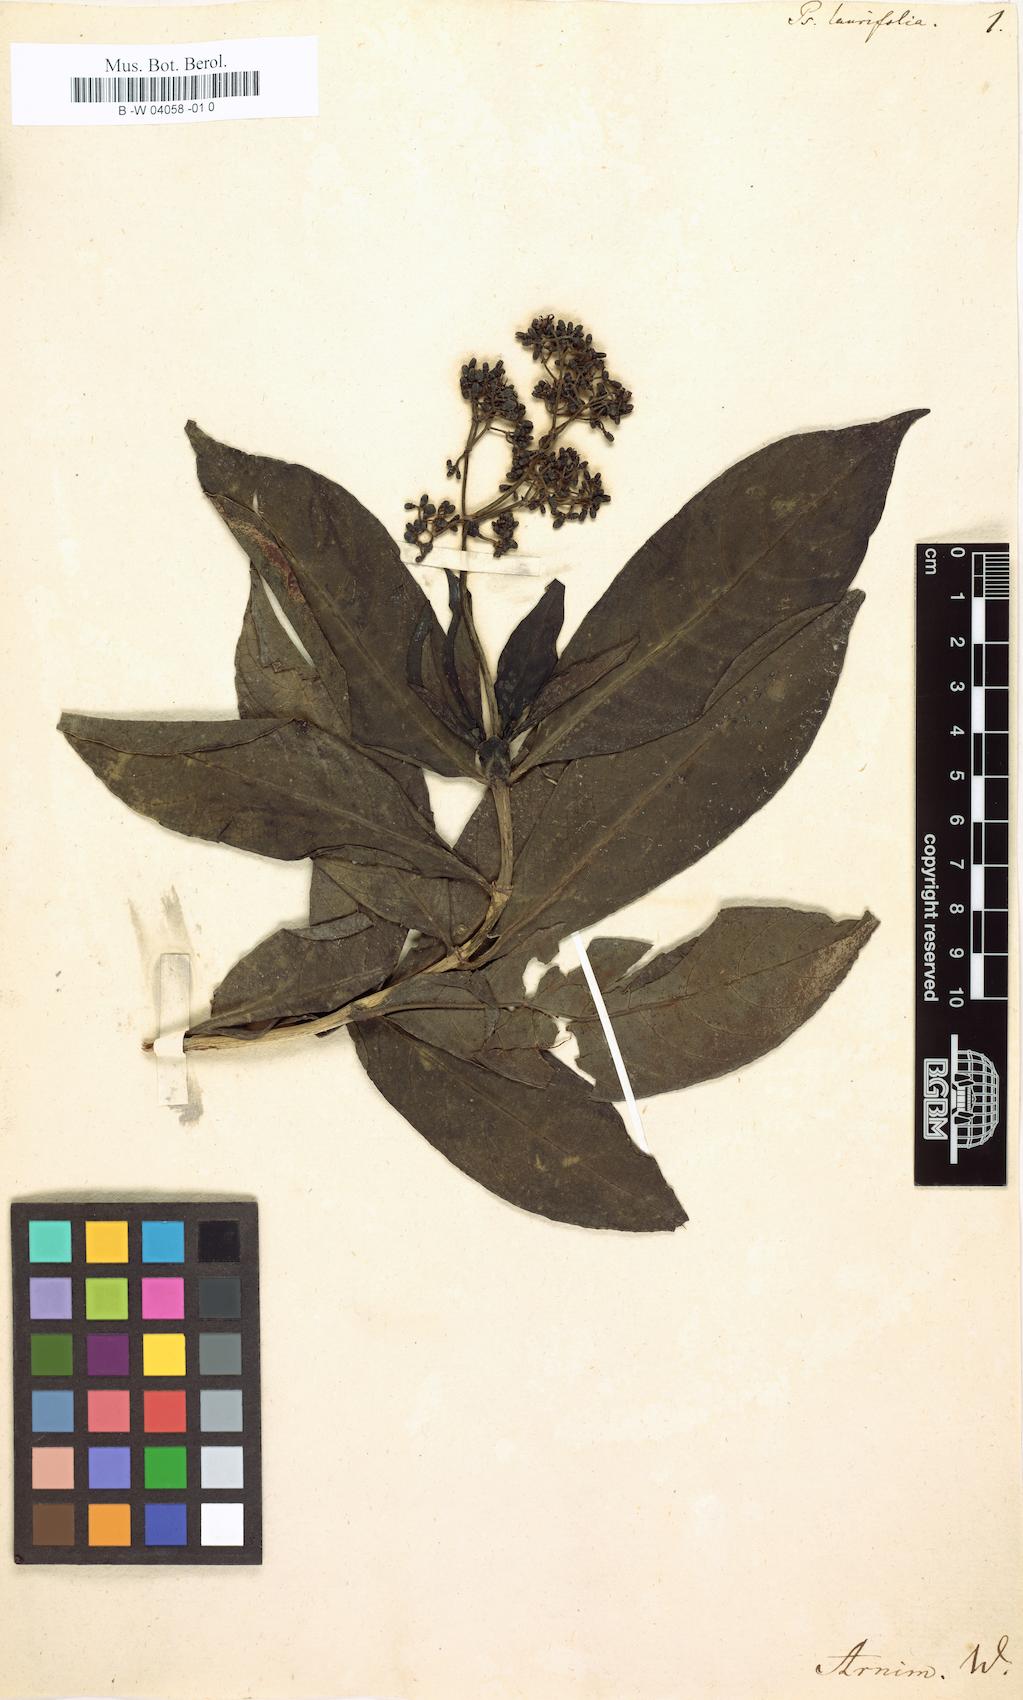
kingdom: Plantae
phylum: Tracheophyta
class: Magnoliopsida
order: Gentianales
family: Rubiaceae
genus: Psychotria
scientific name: Psychotria
